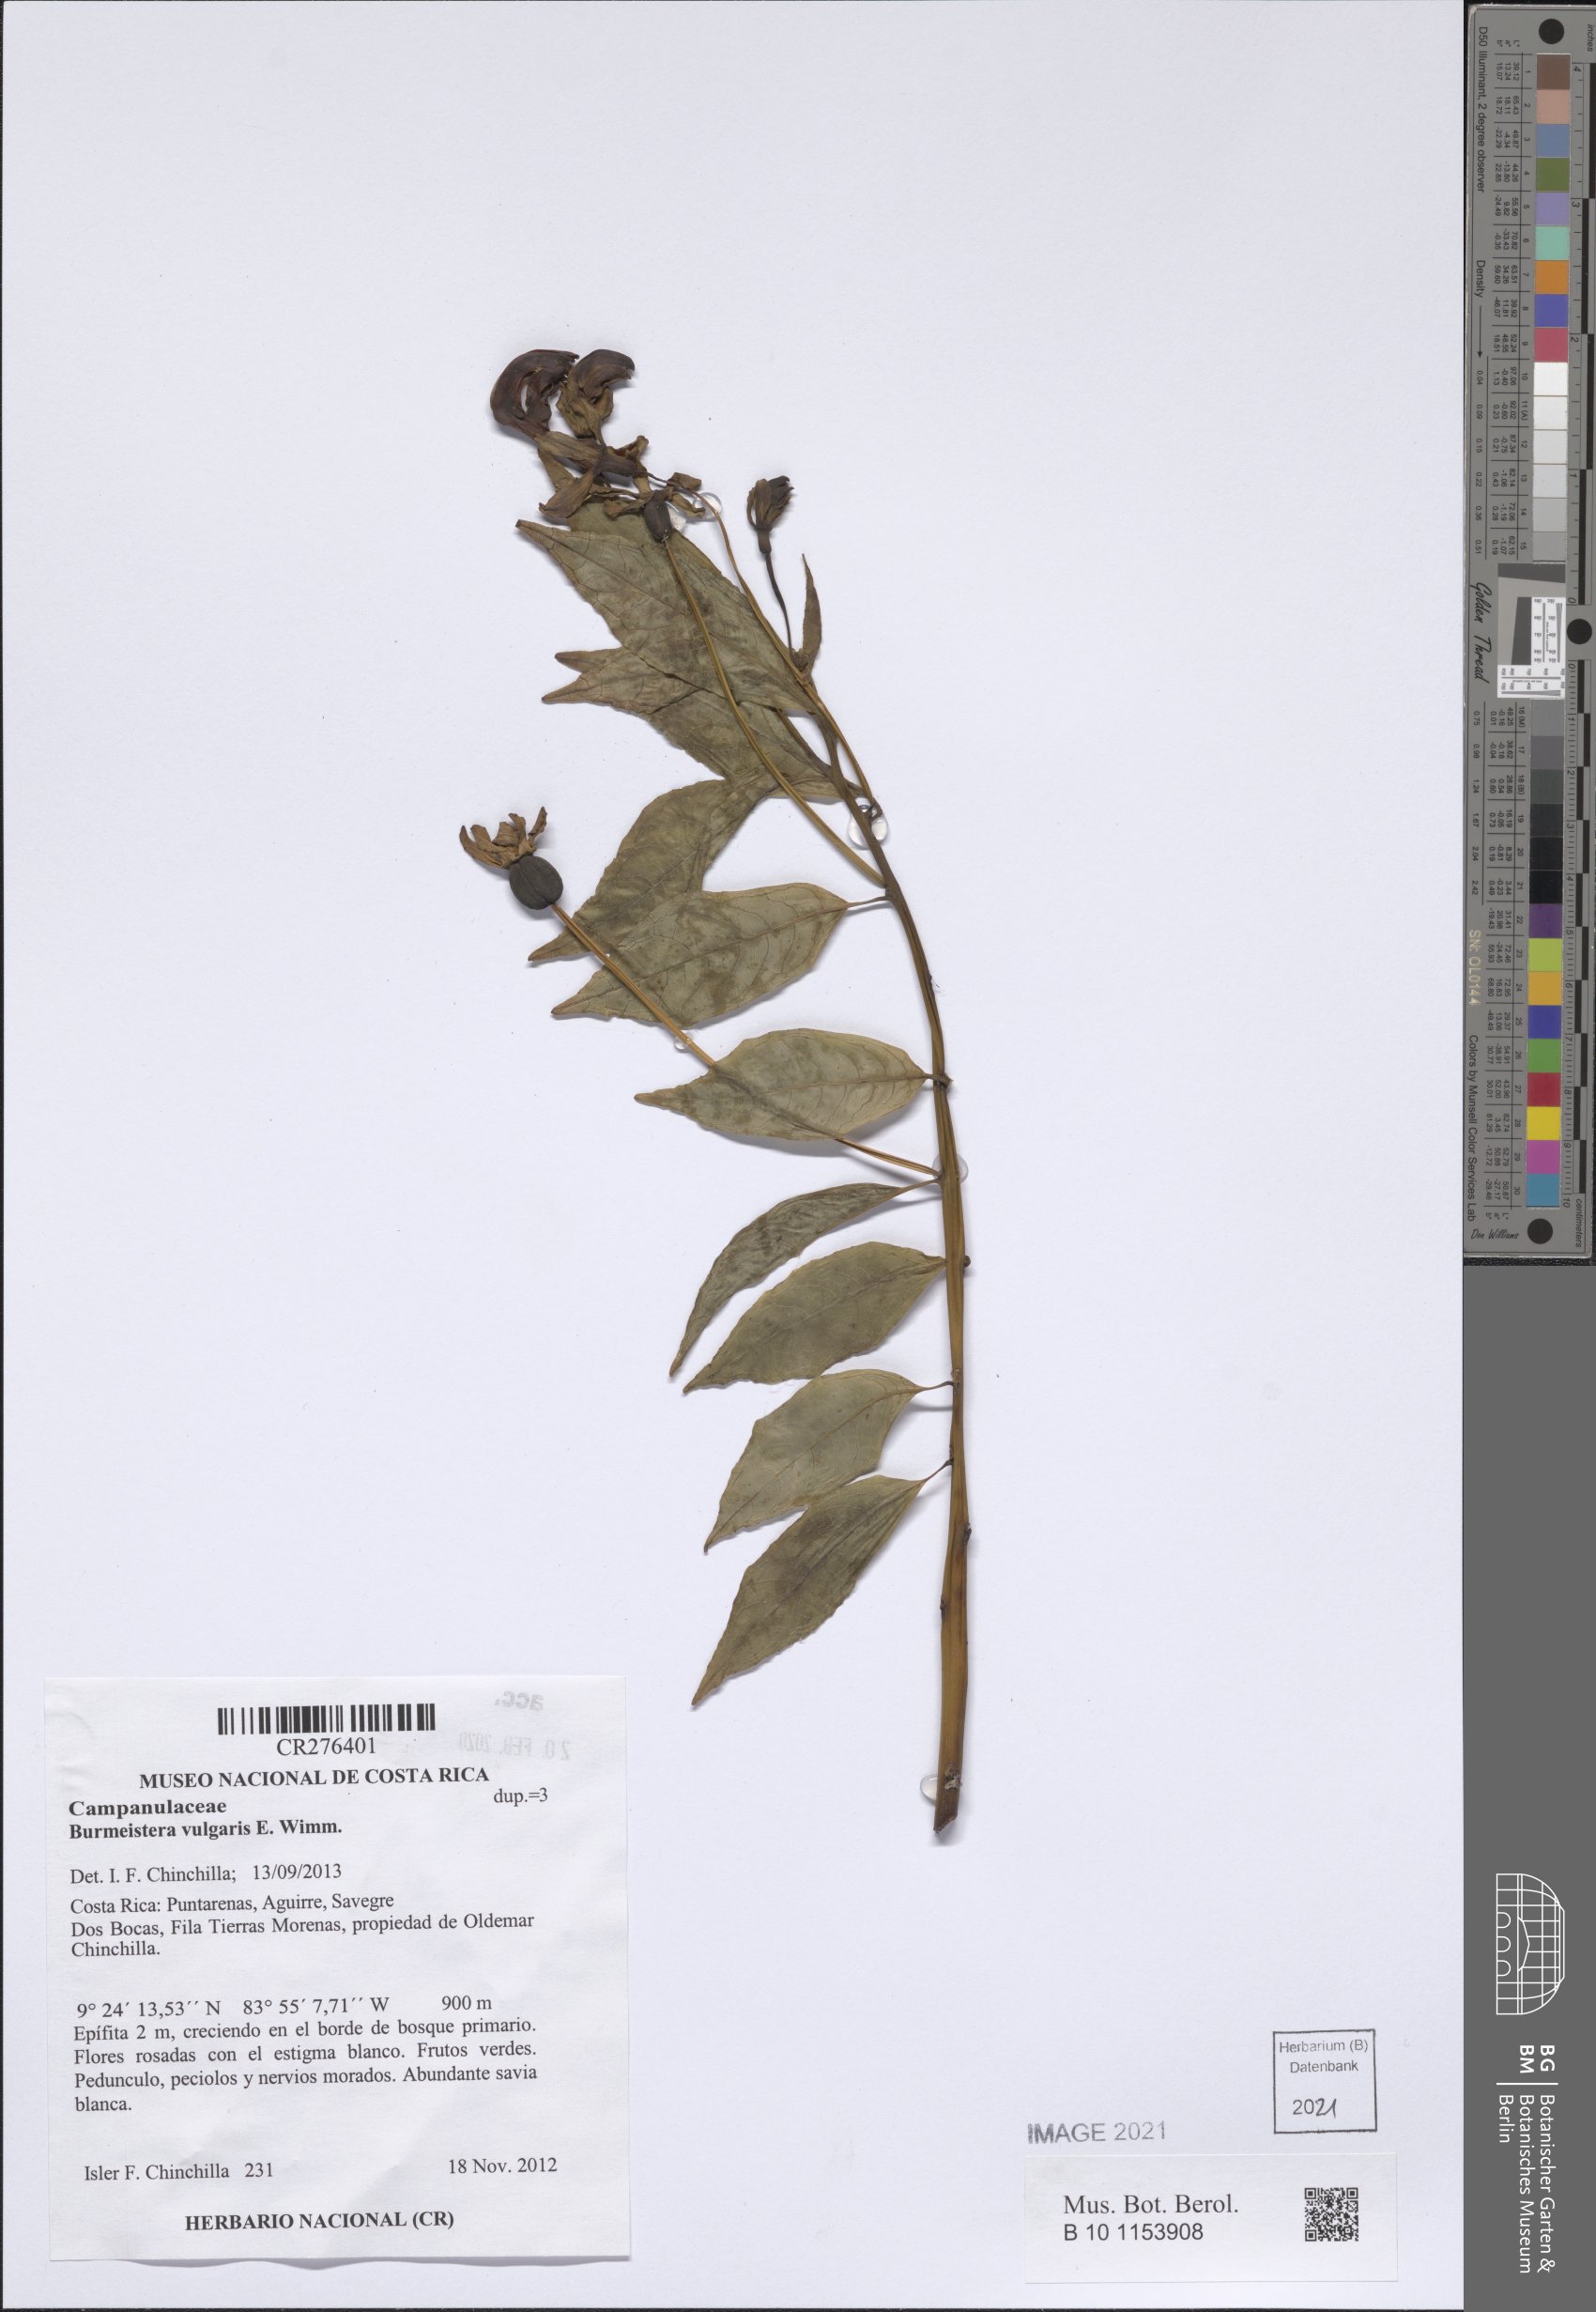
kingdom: Plantae
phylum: Tracheophyta
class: Magnoliopsida
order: Asterales
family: Campanulaceae
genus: Burmeistera
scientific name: Burmeistera vulgaris
